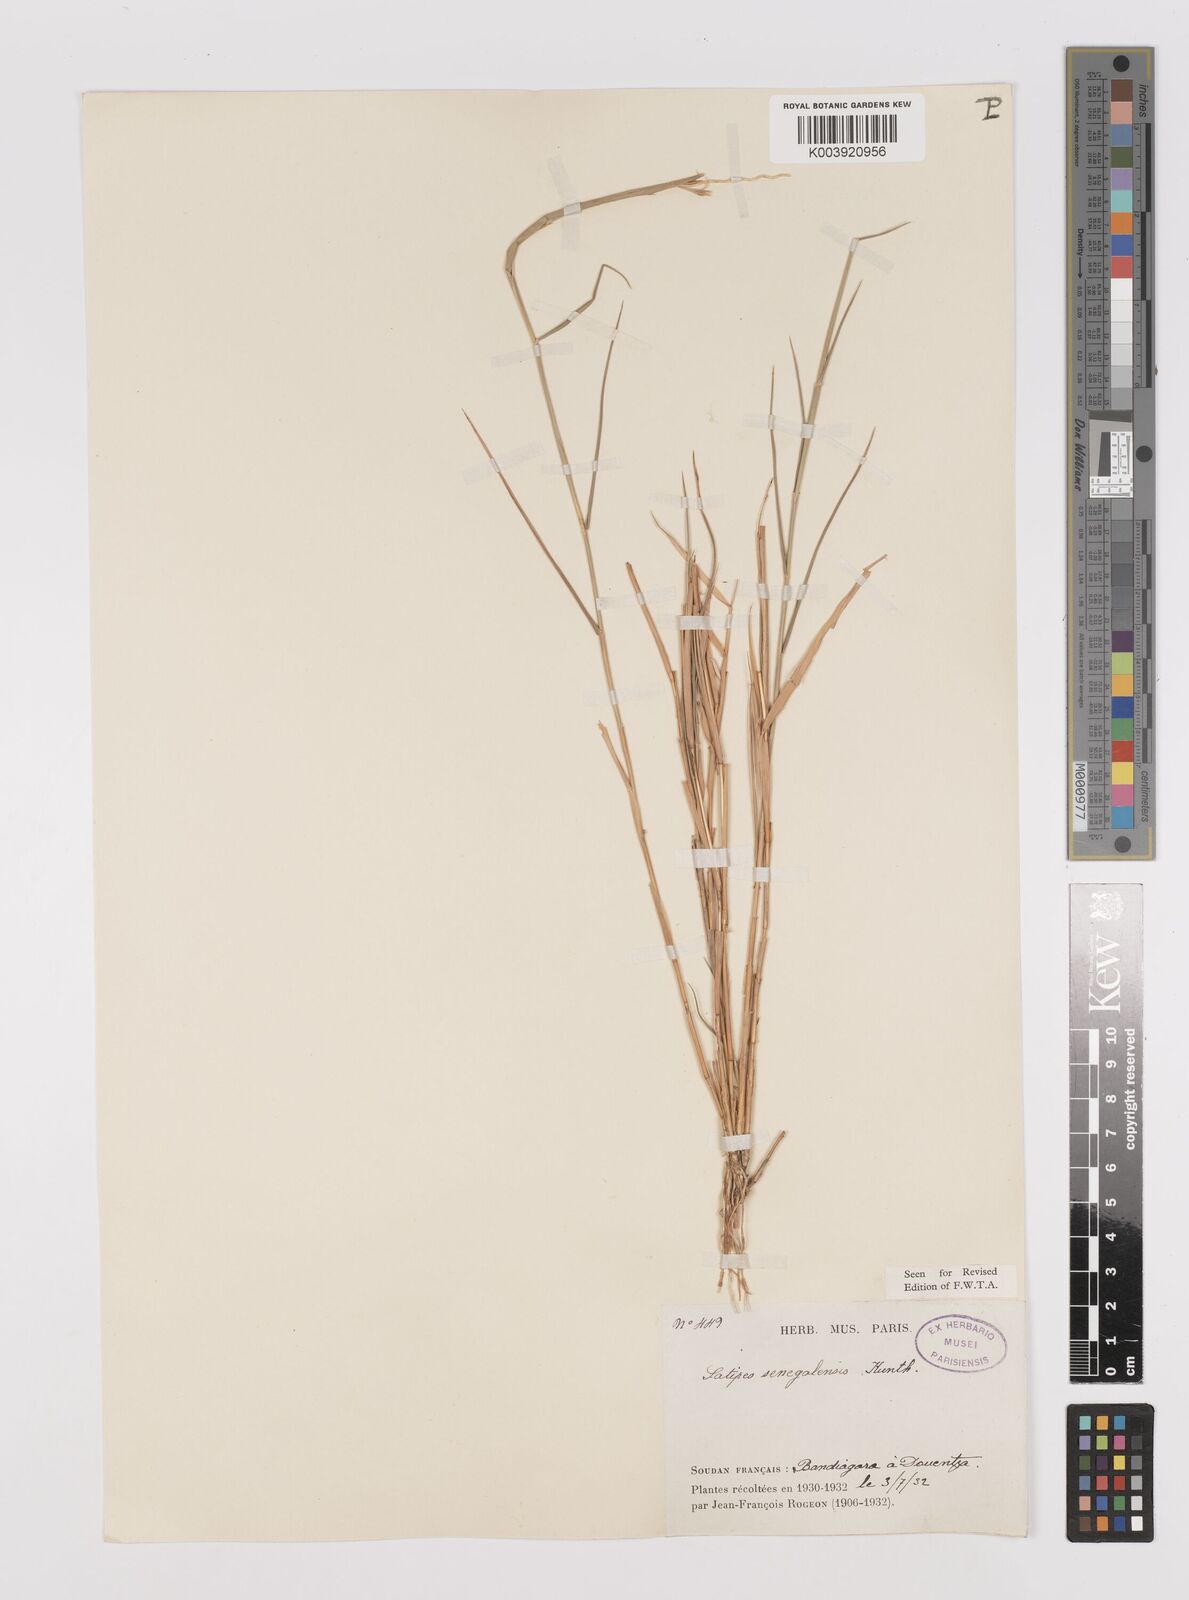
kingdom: Plantae
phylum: Tracheophyta
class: Liliopsida
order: Poales
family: Poaceae
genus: Leptothrium
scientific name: Leptothrium senegalense
